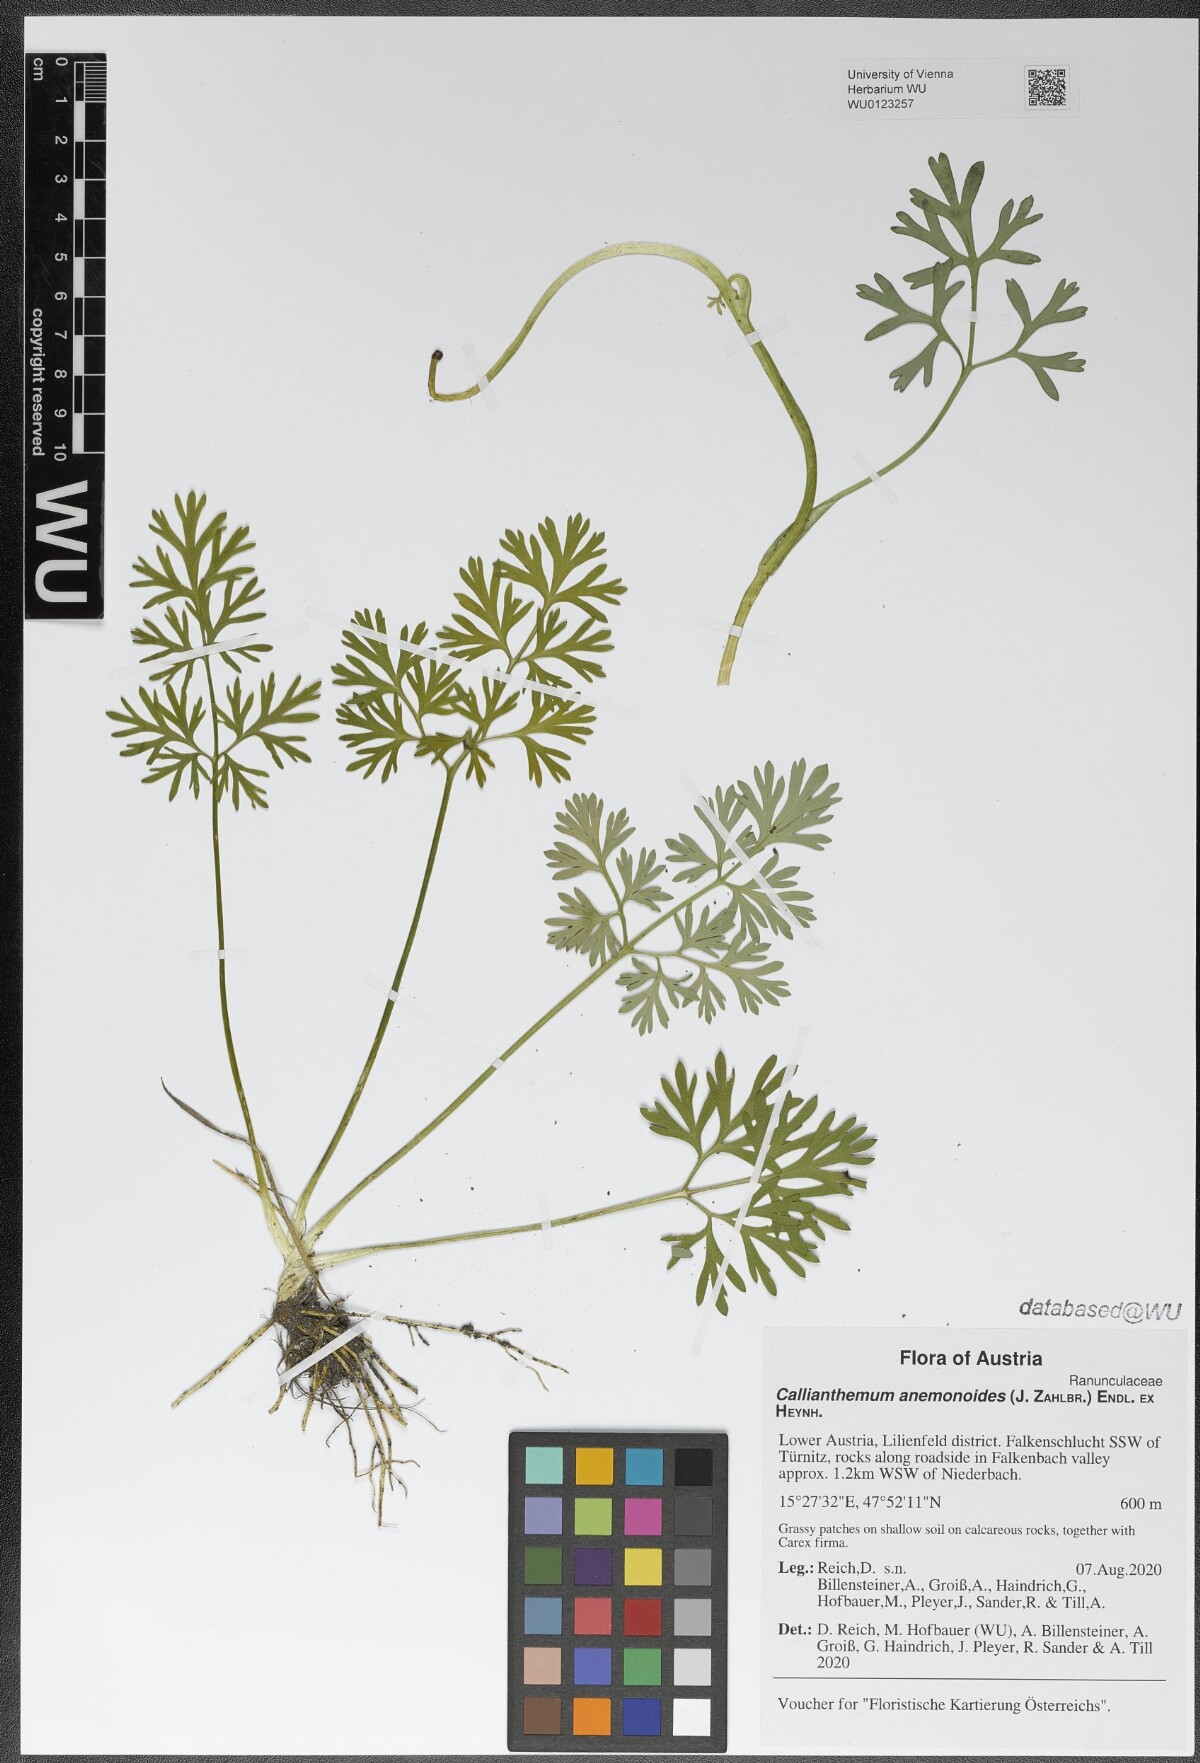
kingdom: Plantae
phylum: Tracheophyta
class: Magnoliopsida
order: Ranunculales
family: Ranunculaceae
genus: Callianthemum
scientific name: Callianthemum anemonoides
